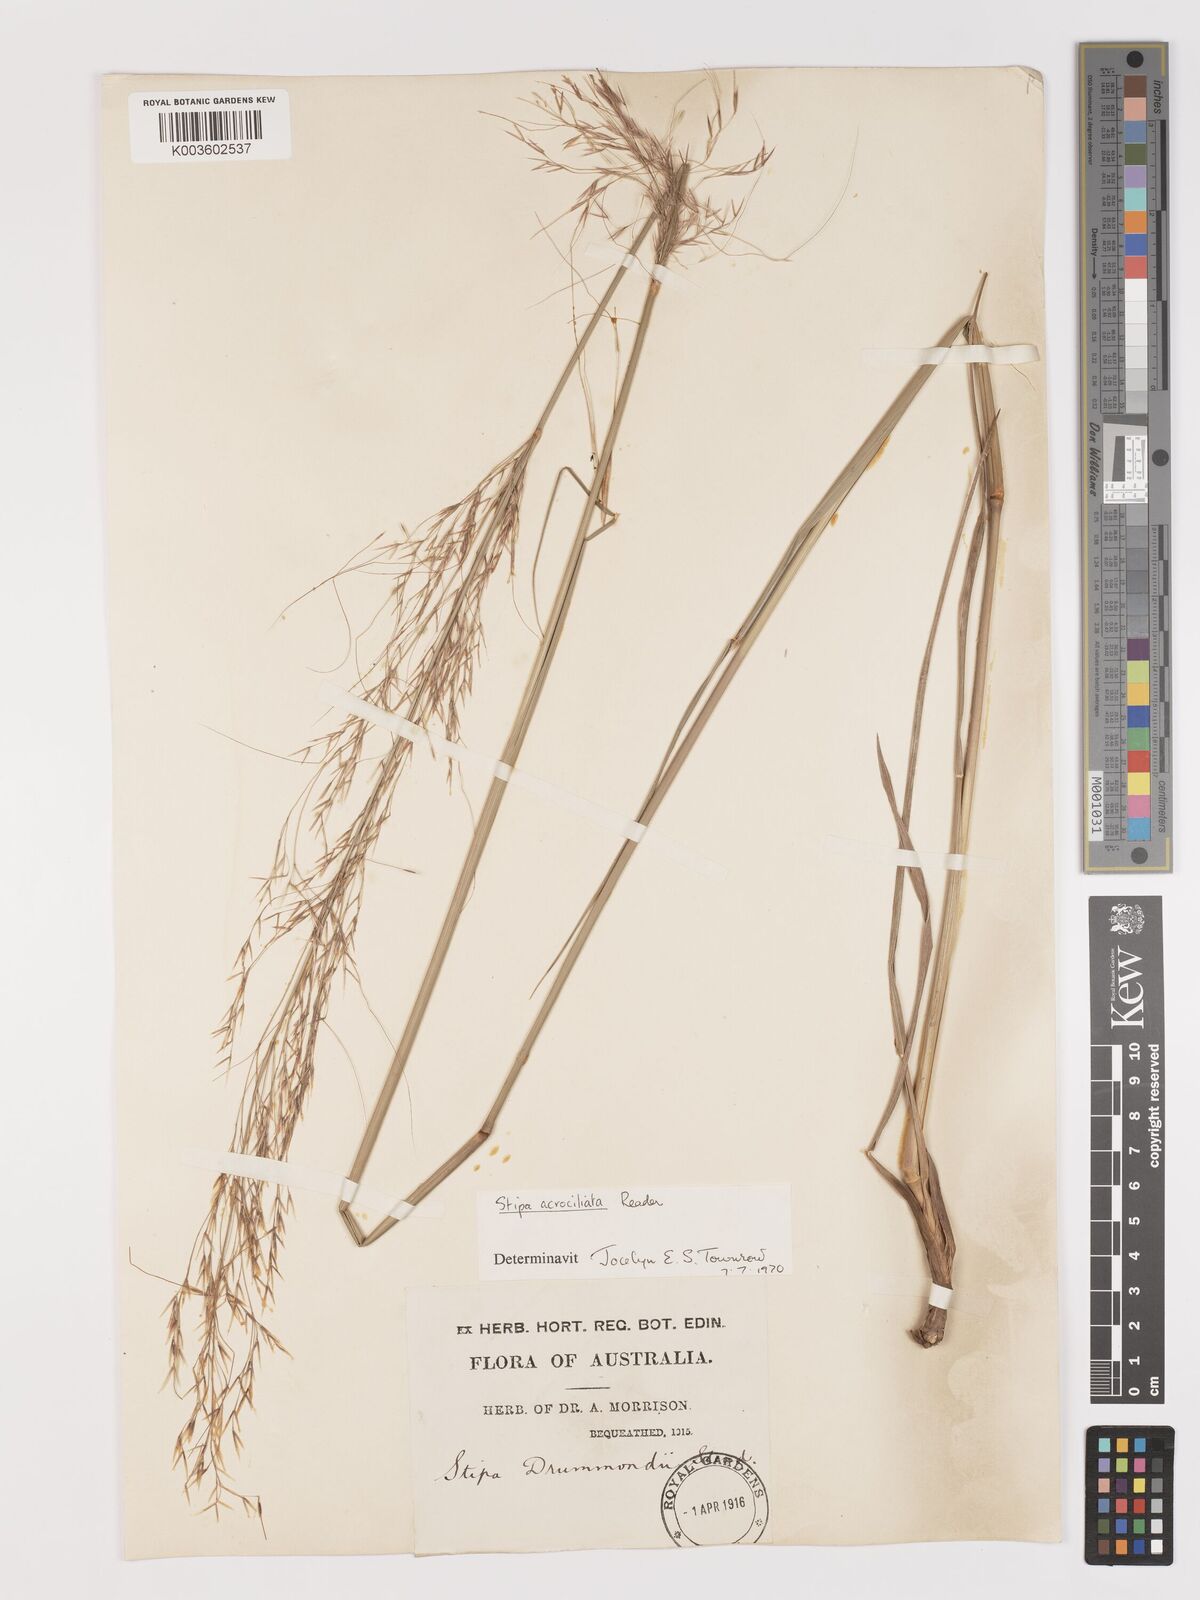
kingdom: Plantae
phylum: Tracheophyta
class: Liliopsida
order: Poales
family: Poaceae
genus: Austrostipa
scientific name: Austrostipa acrociliata
